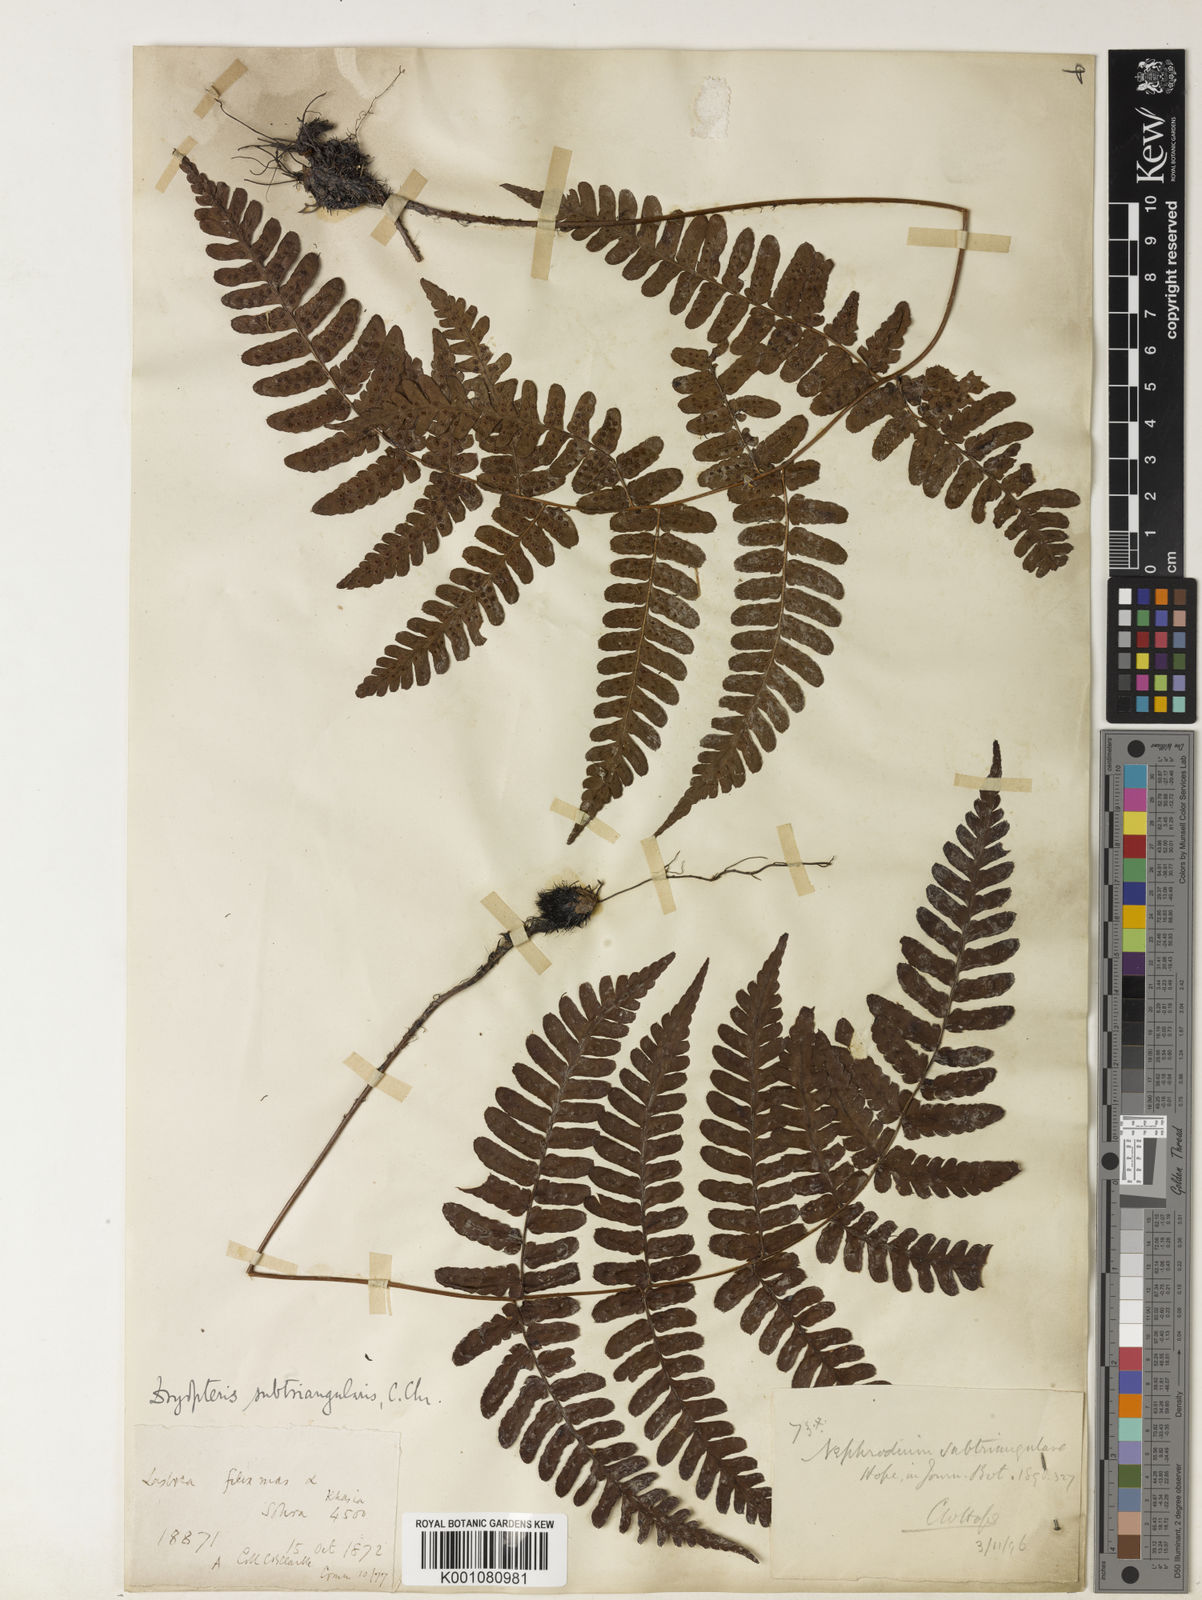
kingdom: Plantae
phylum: Tracheophyta
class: Polypodiopsida
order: Polypodiales
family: Dryopteridaceae
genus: Dryopteris
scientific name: Dryopteris assamensis
